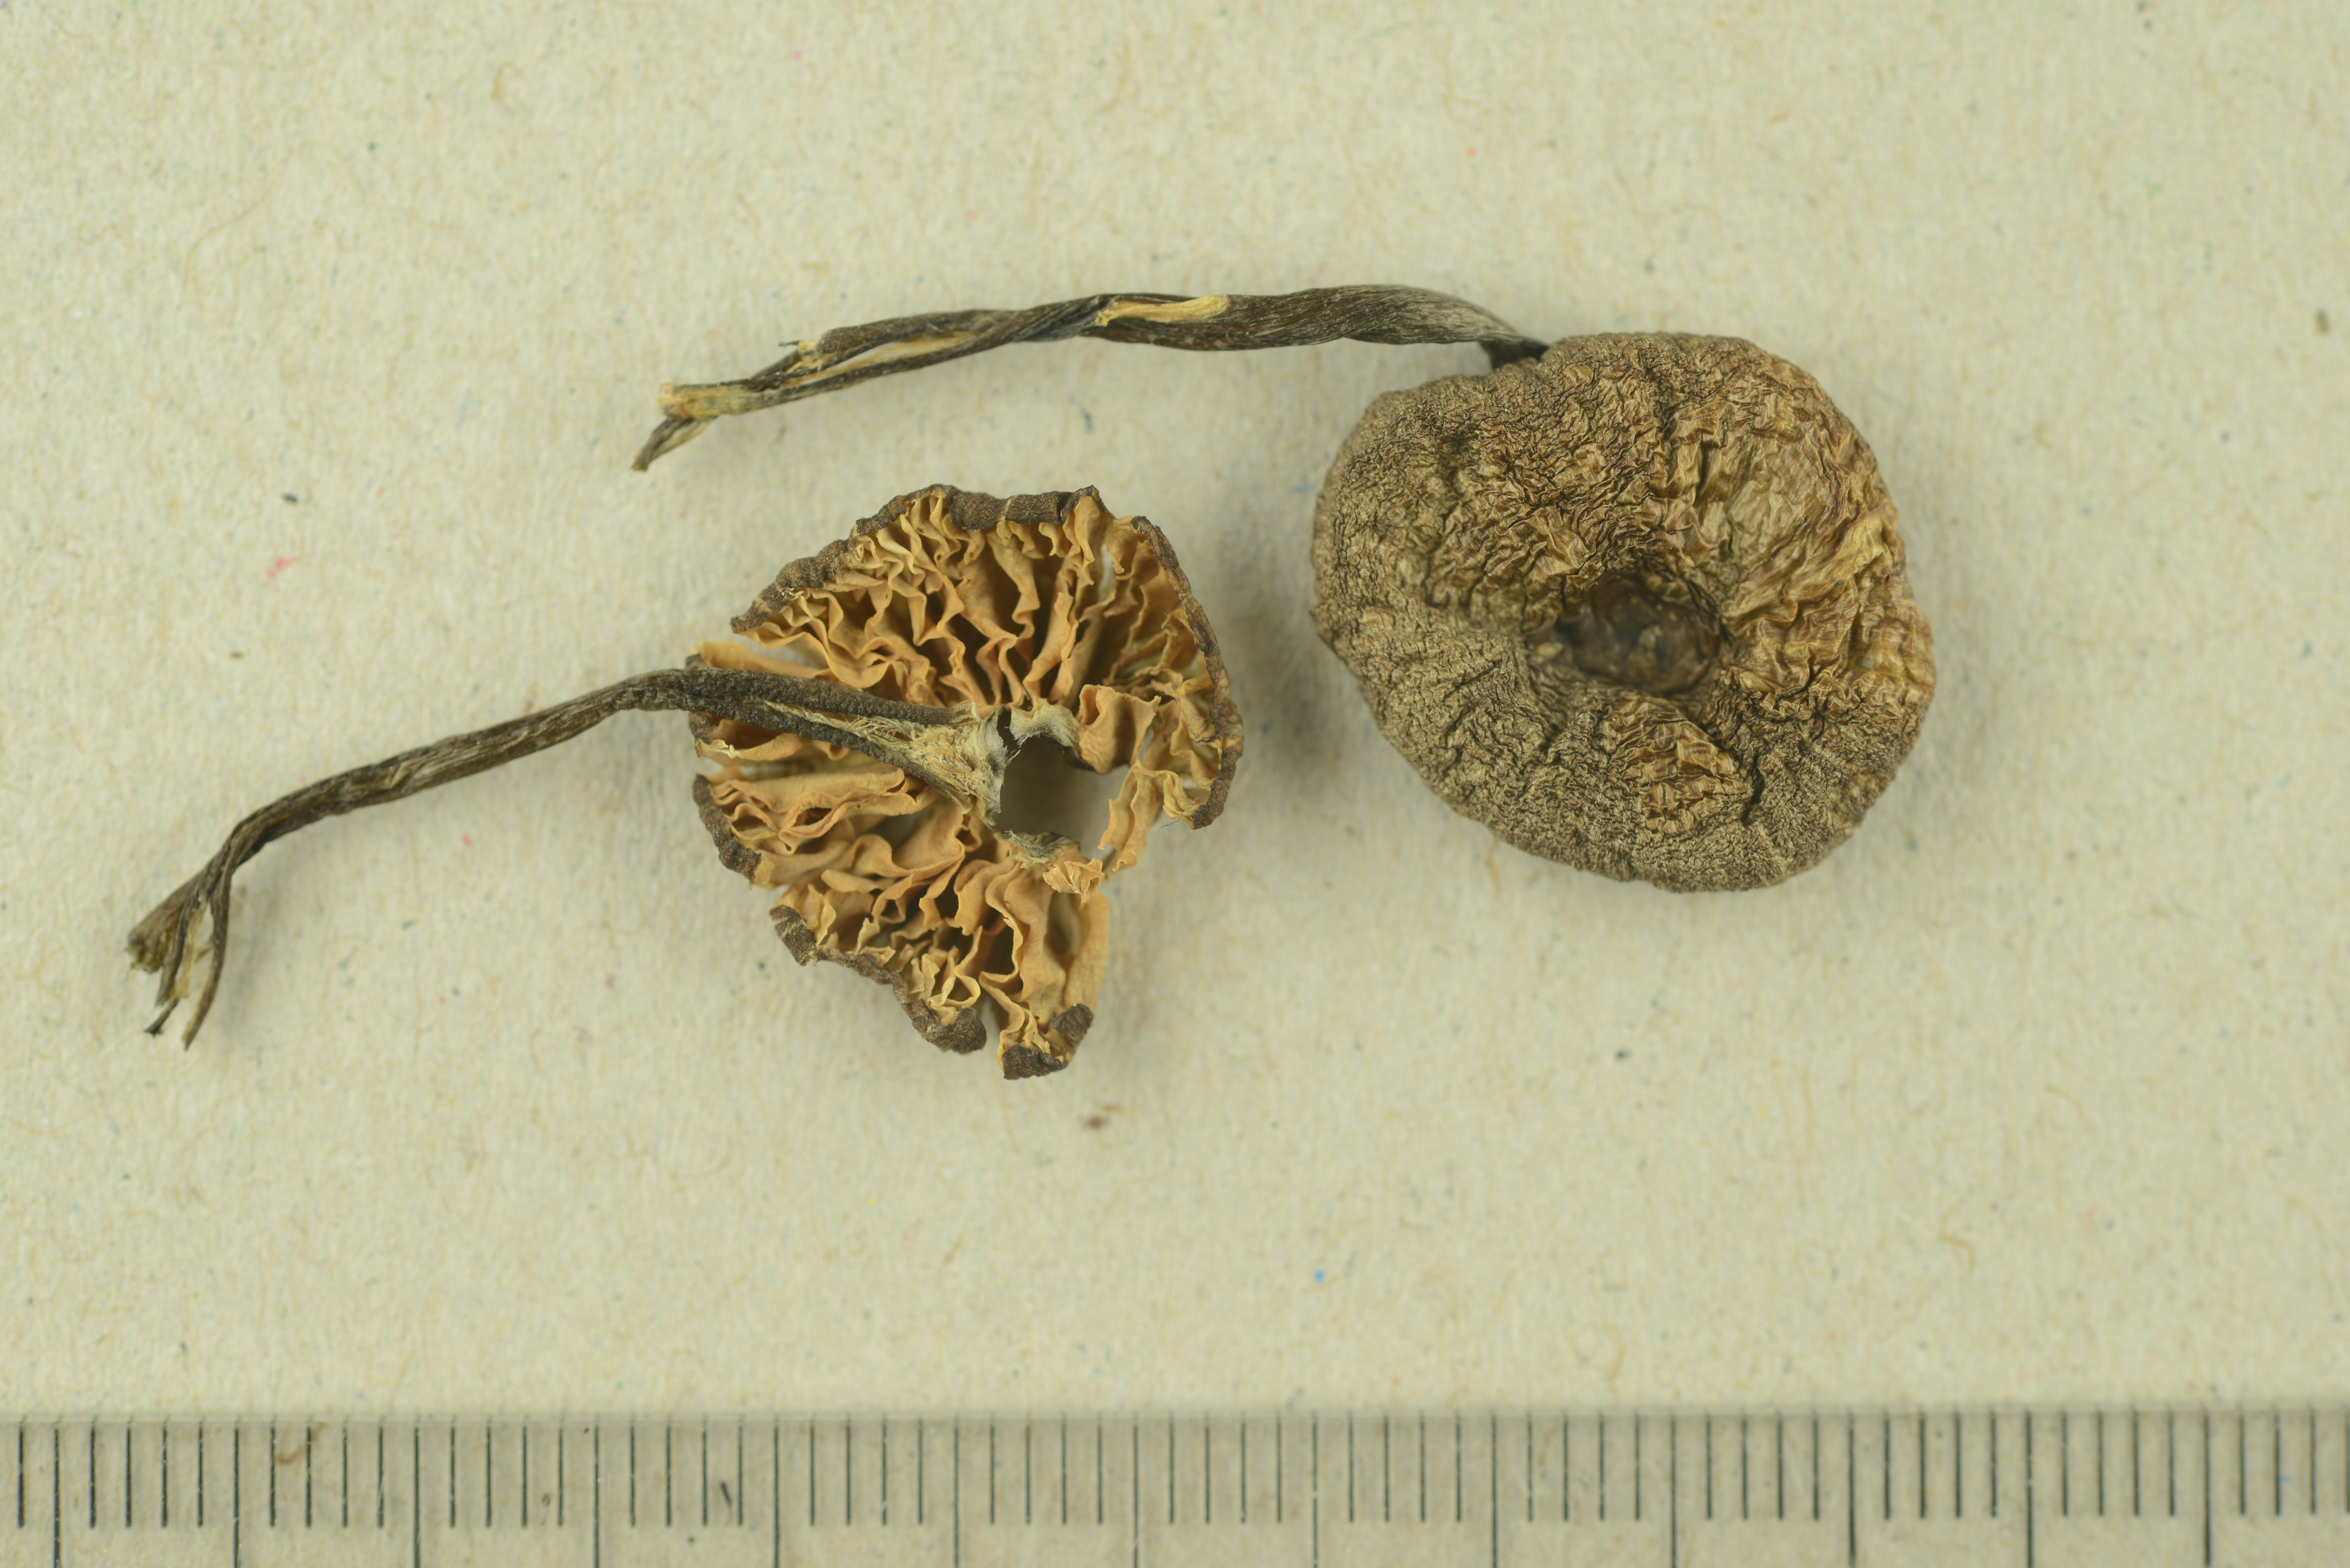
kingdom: Fungi
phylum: Basidiomycota
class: Agaricomycetes
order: Agaricales
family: Entolomataceae
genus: Entoloma
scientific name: Entoloma sodale
